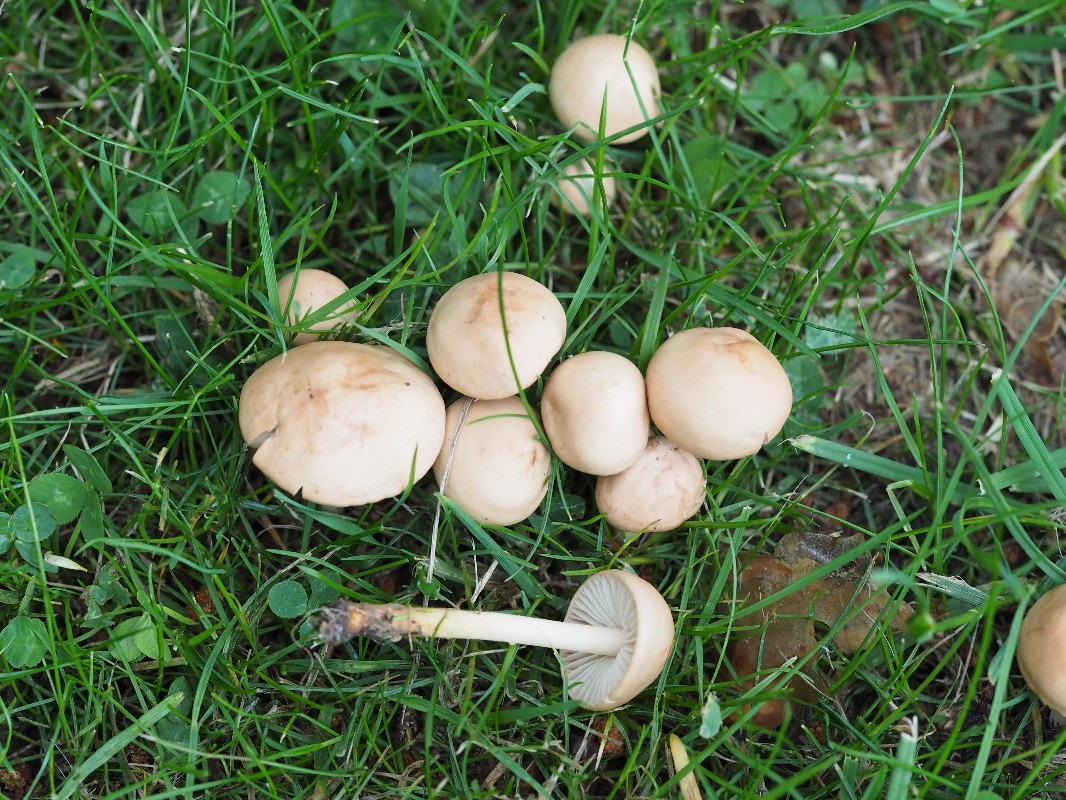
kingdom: Fungi
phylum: Basidiomycota
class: Agaricomycetes
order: Agaricales
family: Marasmiaceae
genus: Marasmius
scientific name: Marasmius oreades
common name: elledans-bruskhat
